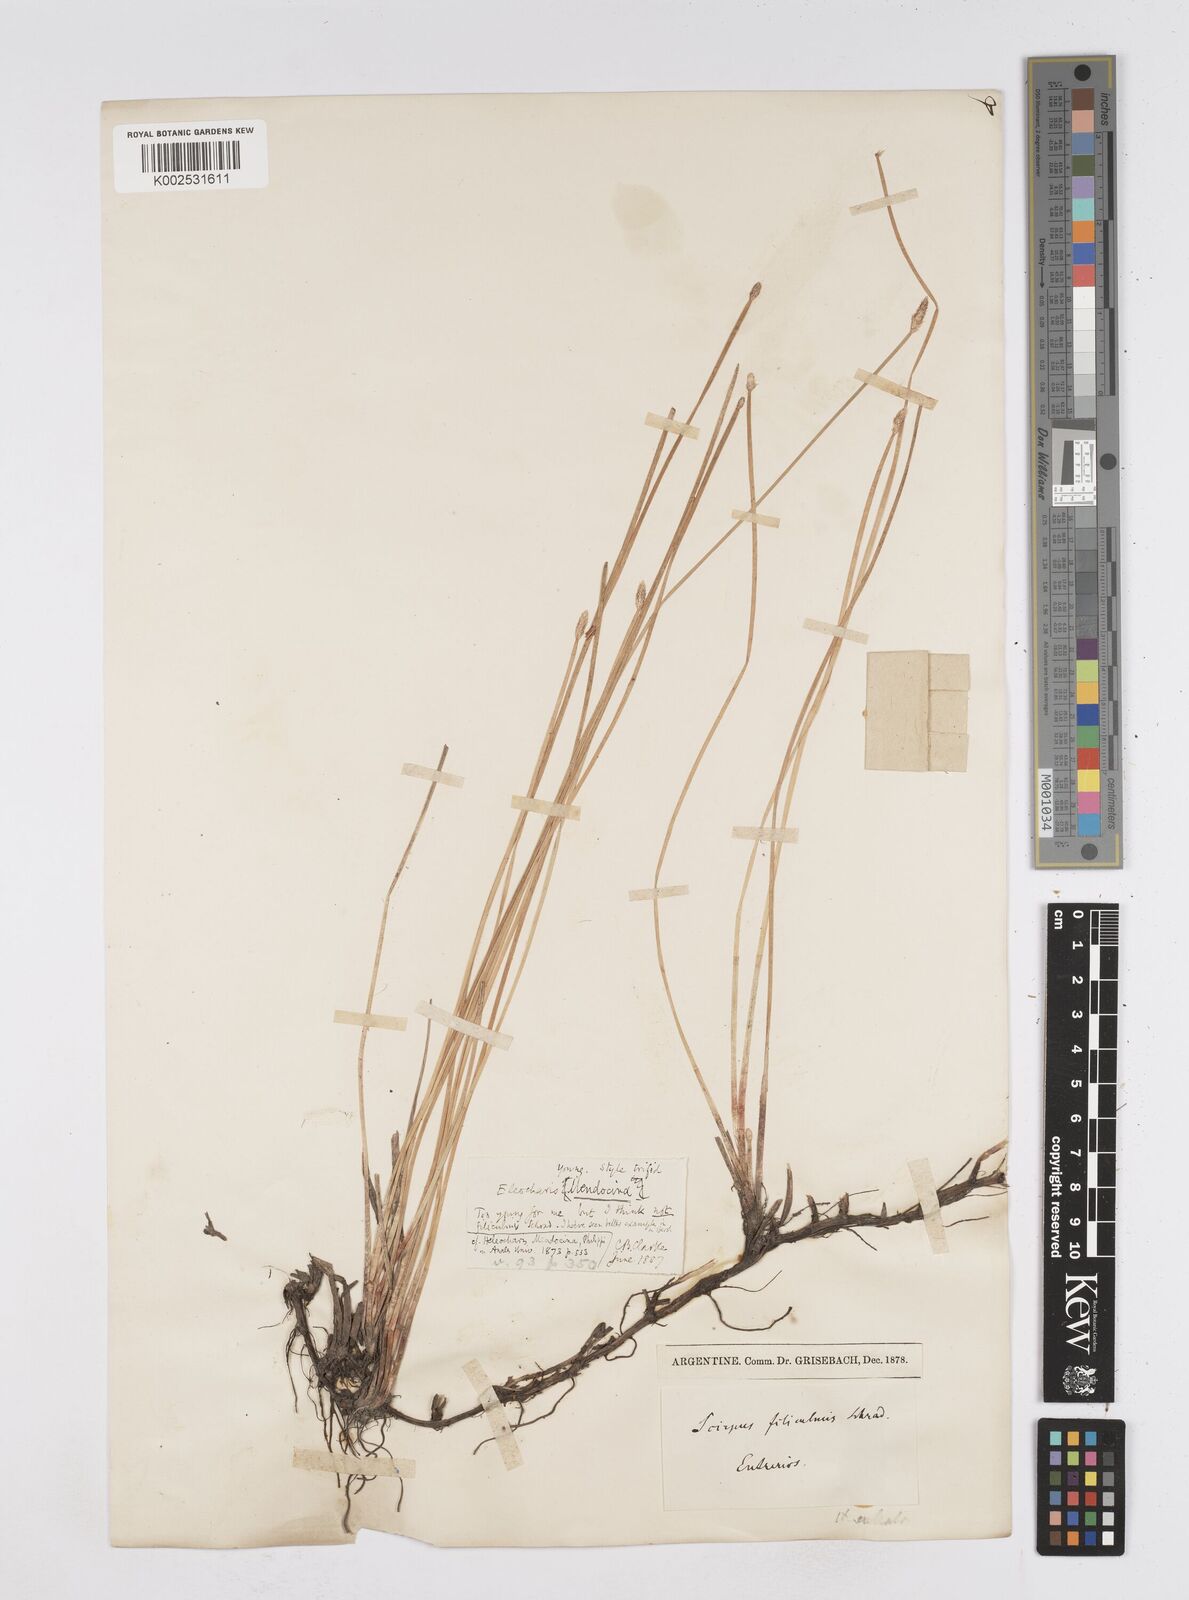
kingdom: Plantae
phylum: Tracheophyta
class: Liliopsida
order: Poales
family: Cyperaceae
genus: Eleocharis
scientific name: Eleocharis mendocina
